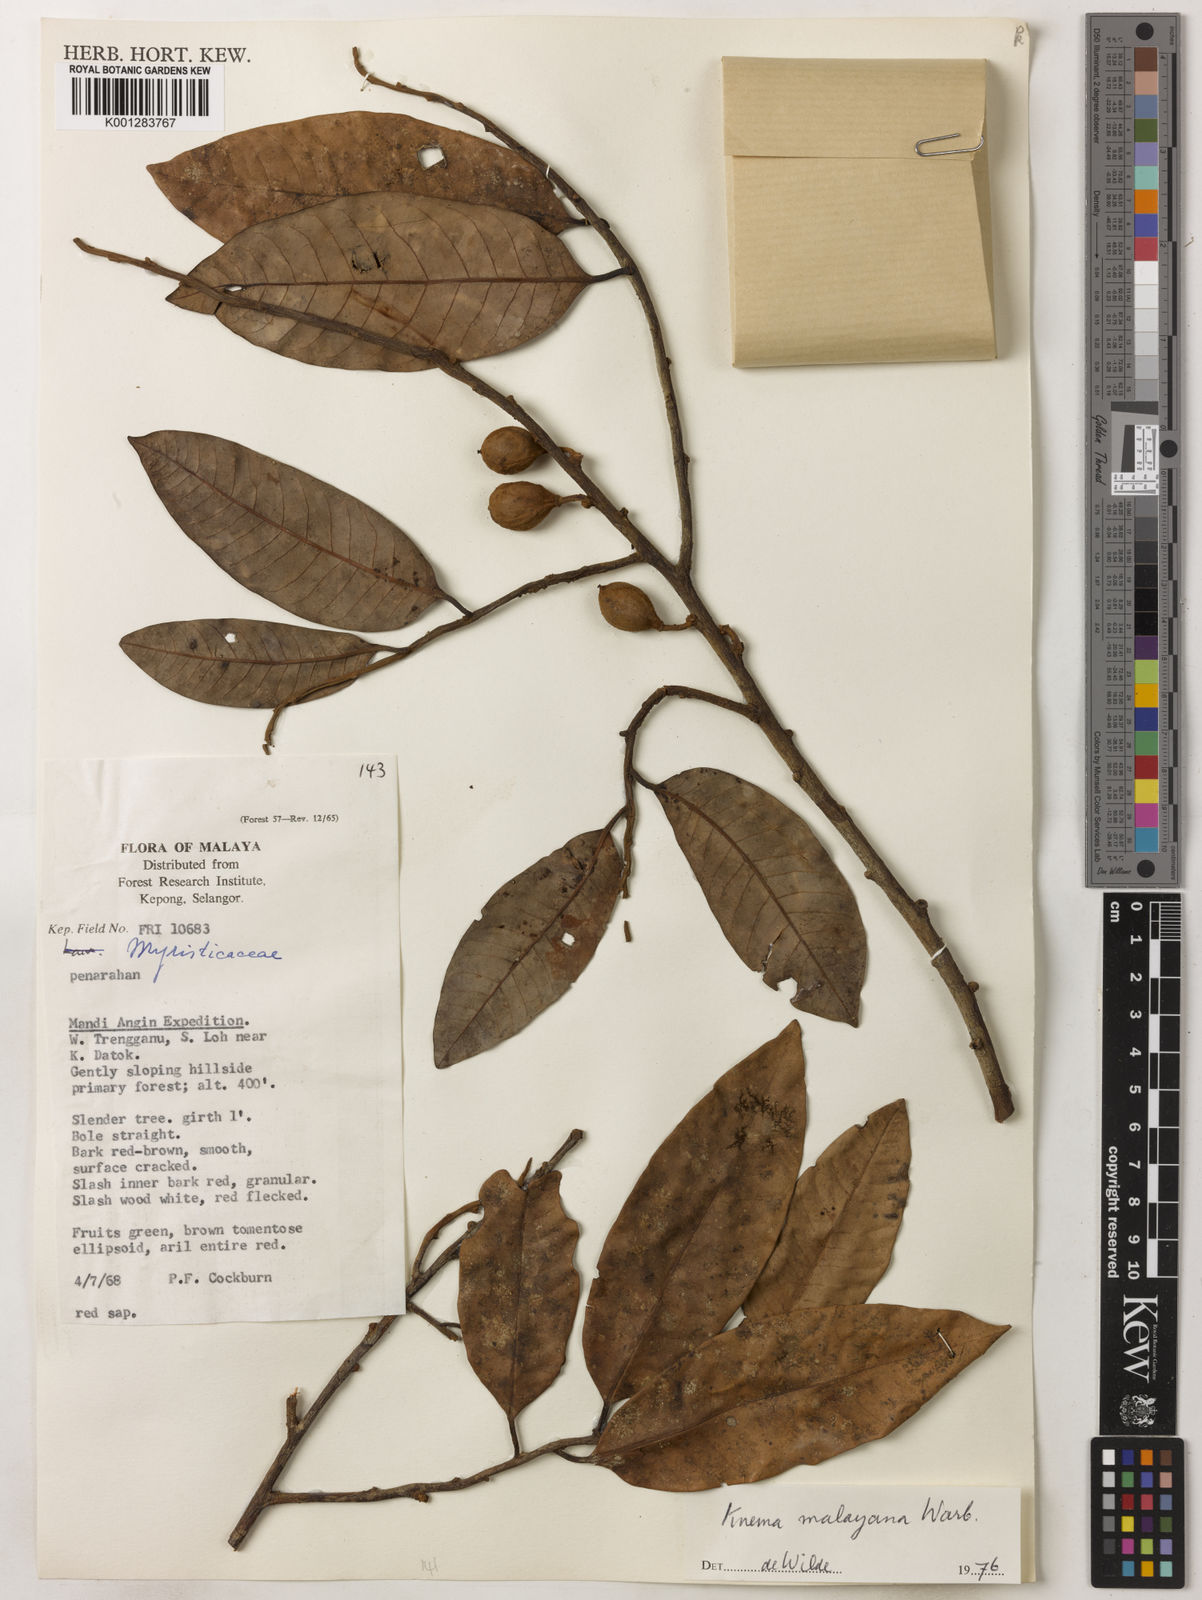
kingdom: Plantae
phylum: Tracheophyta
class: Magnoliopsida
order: Magnoliales
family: Myristicaceae
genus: Knema
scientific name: Knema malayana
